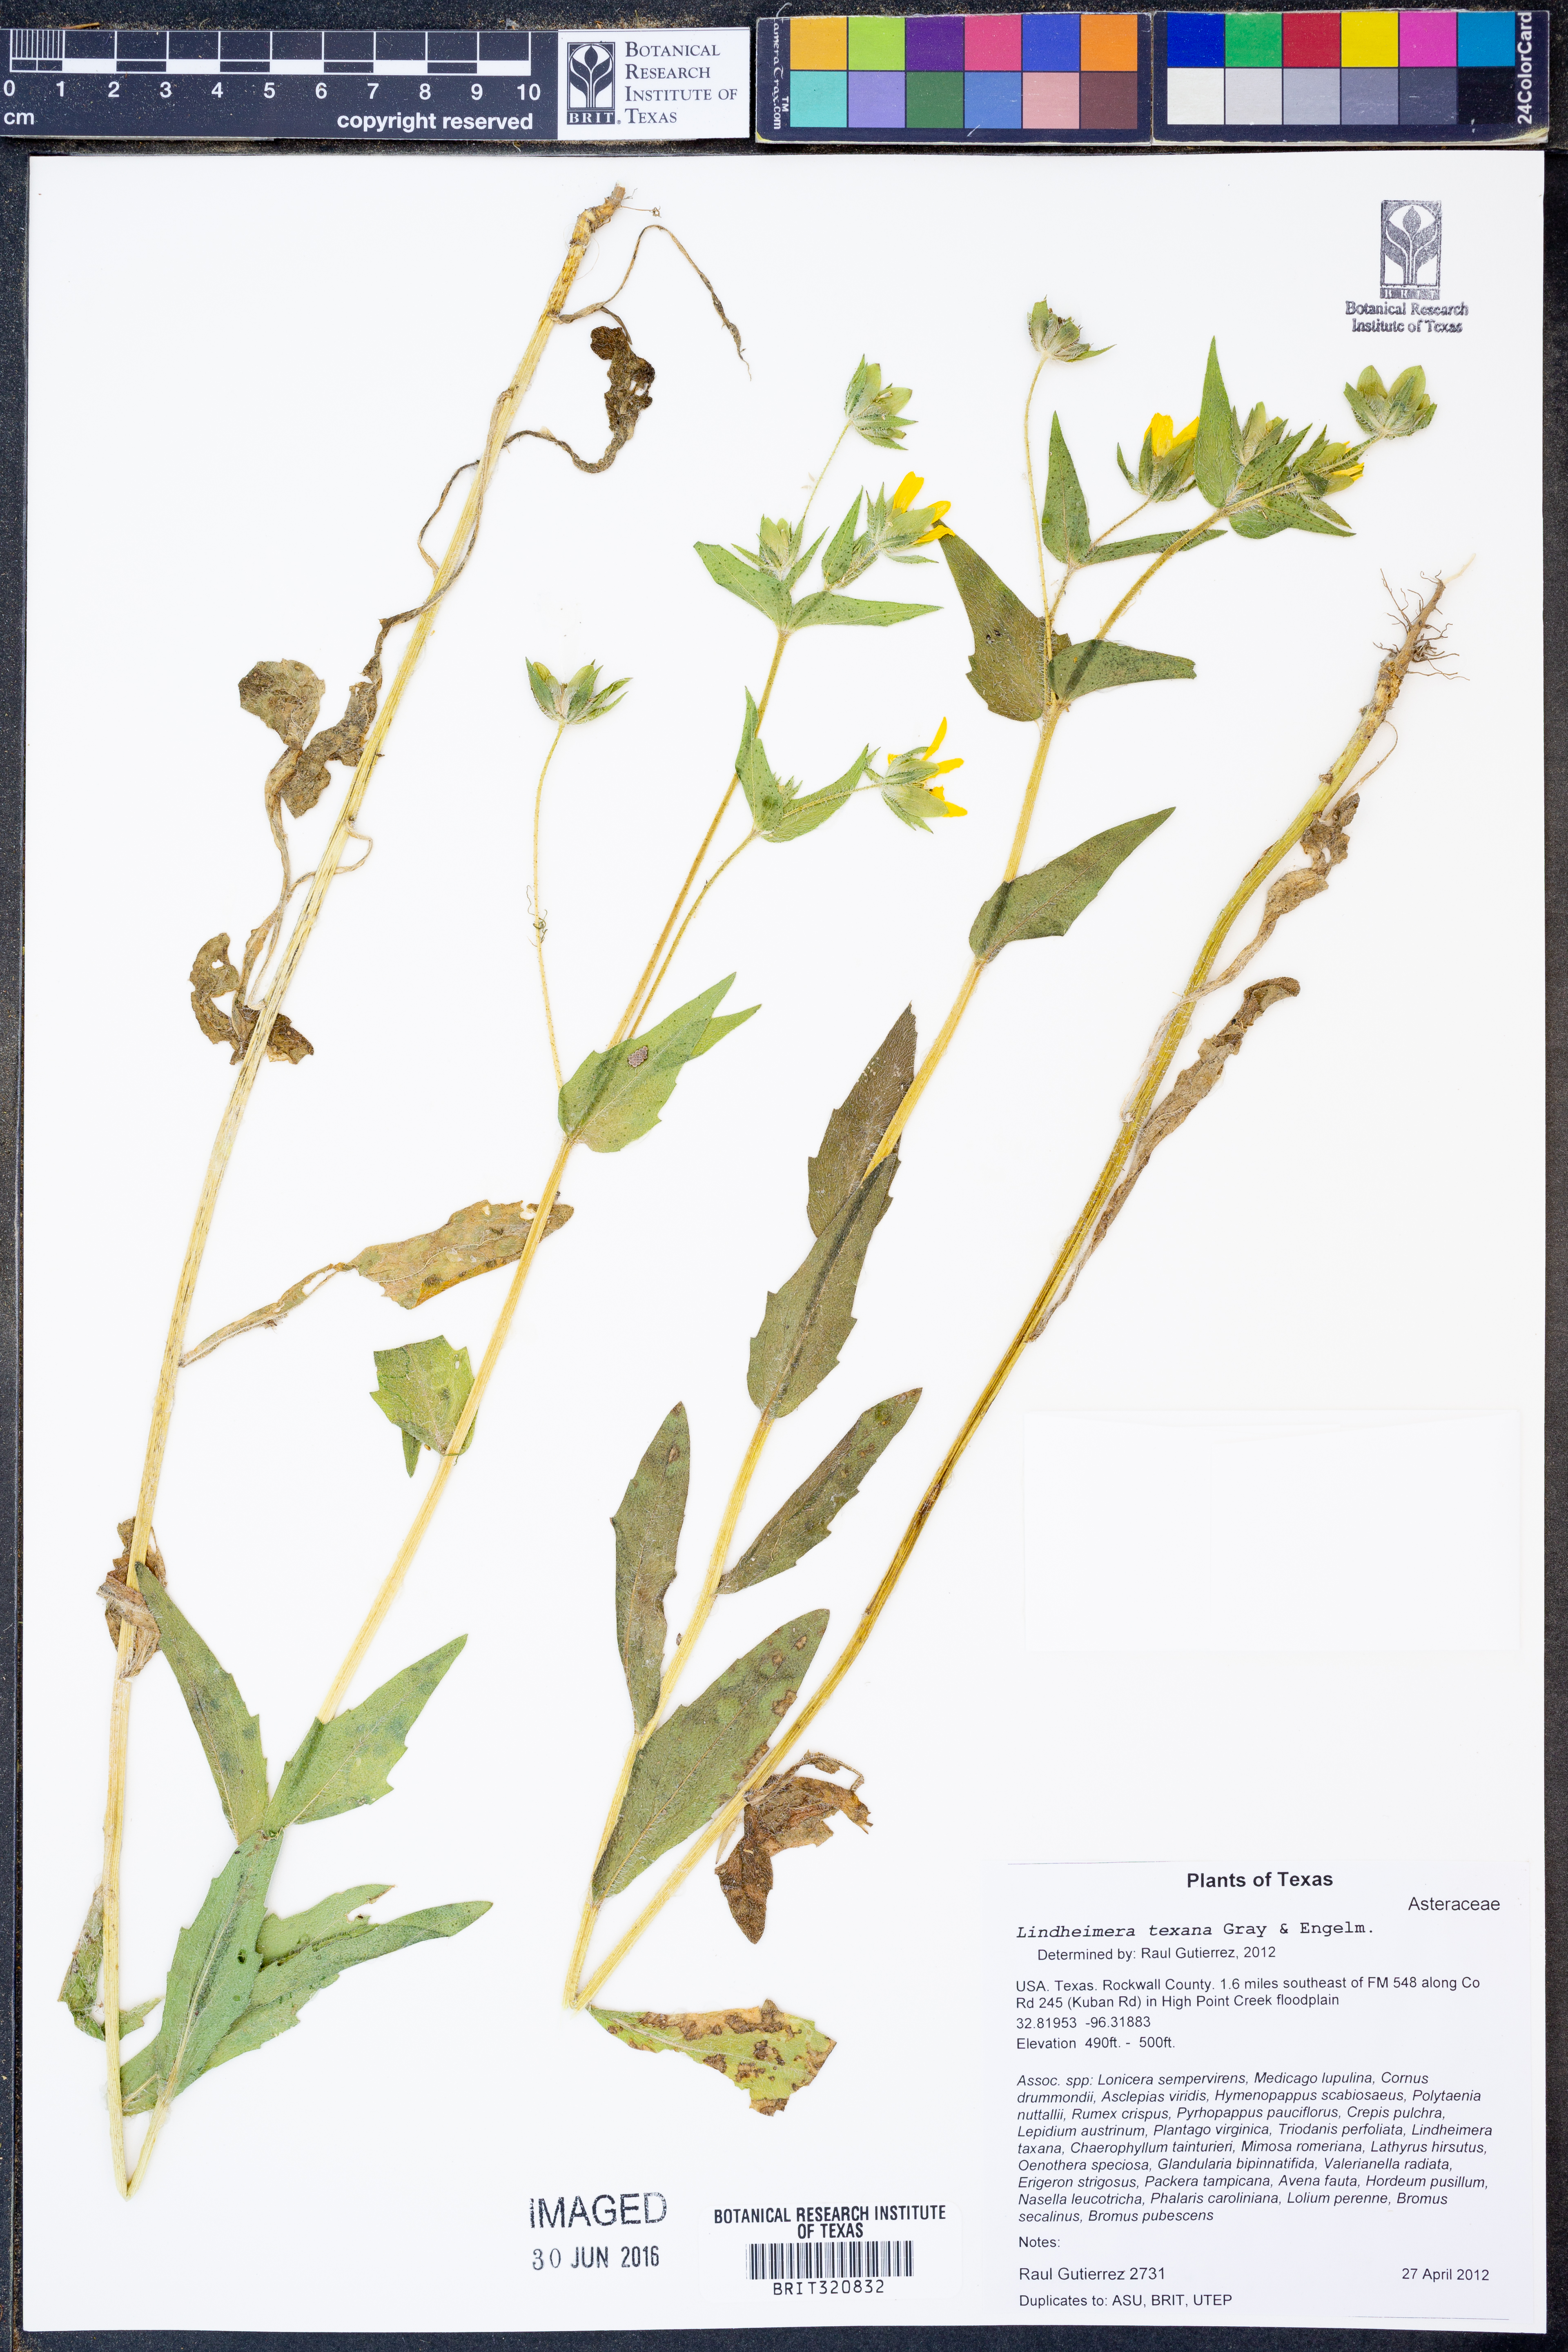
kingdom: Plantae
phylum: Tracheophyta
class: Magnoliopsida
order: Asterales
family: Asteraceae
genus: Lindheimera
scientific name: Lindheimera texana
